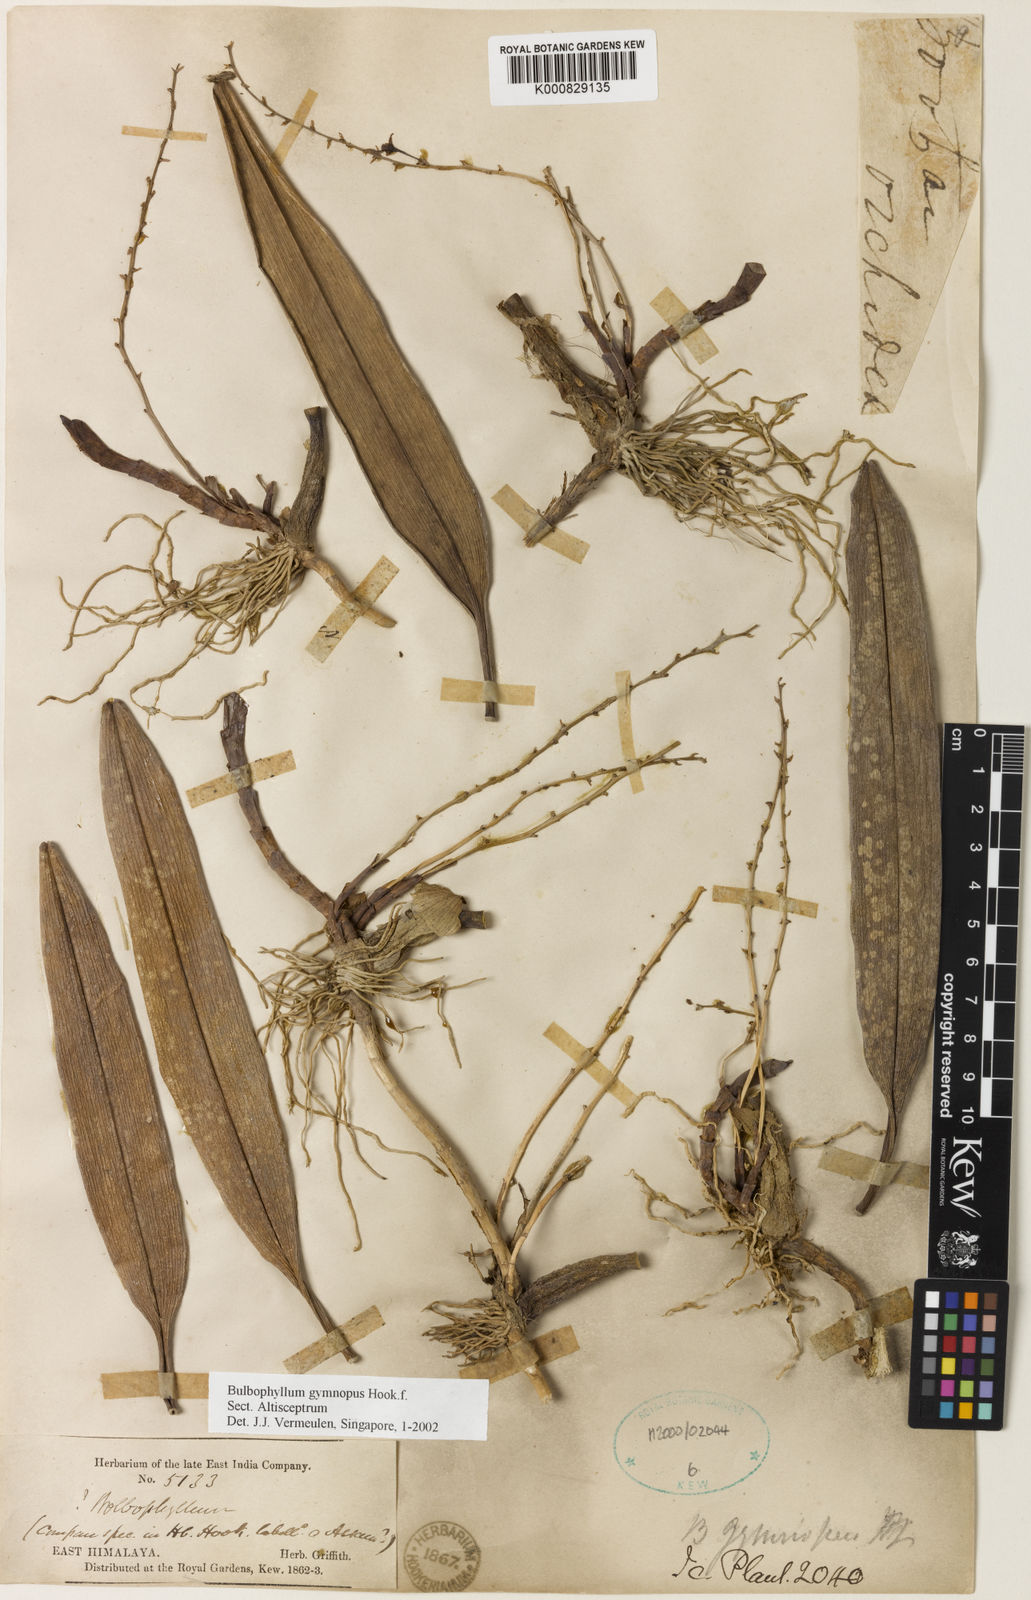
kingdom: Plantae
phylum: Tracheophyta
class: Liliopsida
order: Asparagales
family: Orchidaceae
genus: Bulbophyllum
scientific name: Bulbophyllum gymnopus
